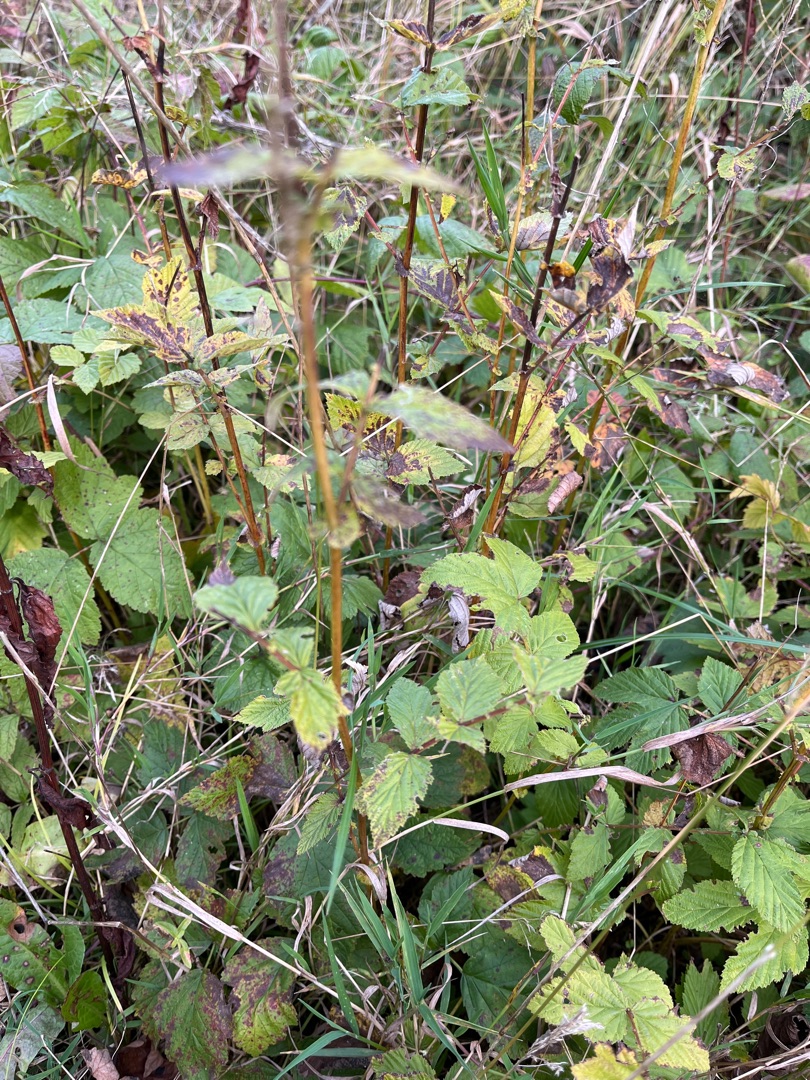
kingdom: Plantae
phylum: Tracheophyta
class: Magnoliopsida
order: Rosales
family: Rosaceae
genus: Filipendula
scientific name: Filipendula ulmaria
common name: Almindelig mjødurt
